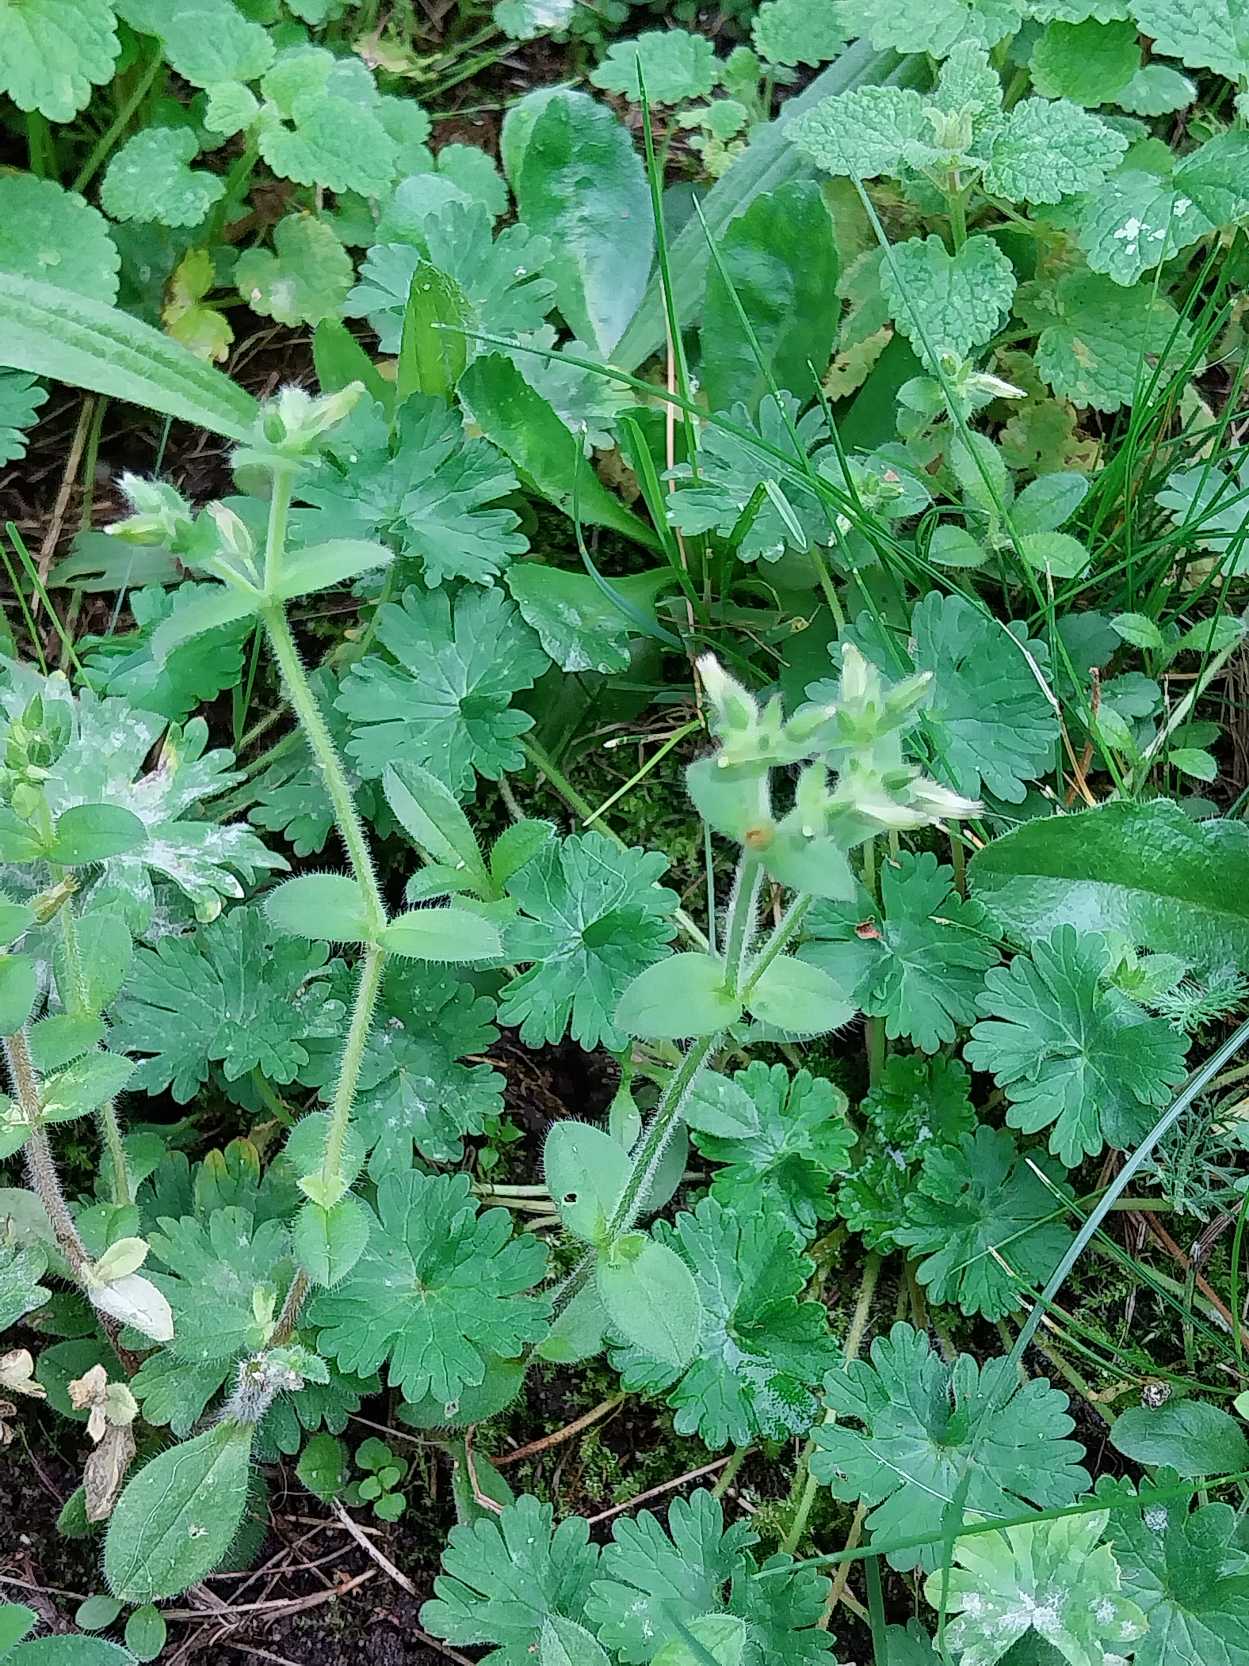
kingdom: Plantae
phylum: Tracheophyta
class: Magnoliopsida
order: Caryophyllales
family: Caryophyllaceae
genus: Cerastium
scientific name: Cerastium glomeratum
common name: Opret hønsetarm
